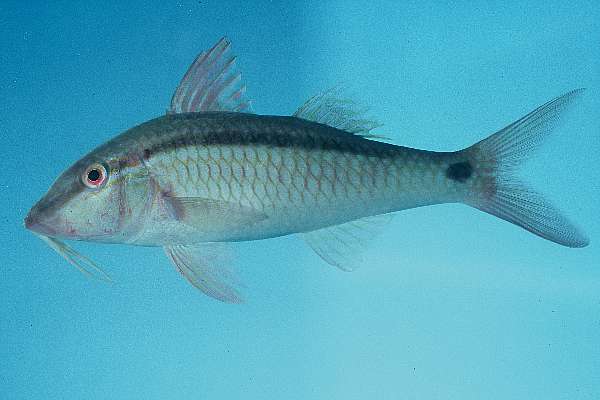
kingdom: Animalia
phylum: Chordata
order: Perciformes
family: Mullidae
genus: Parupeneus
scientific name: Parupeneus barberinus
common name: Dash-and-dot goatfish
